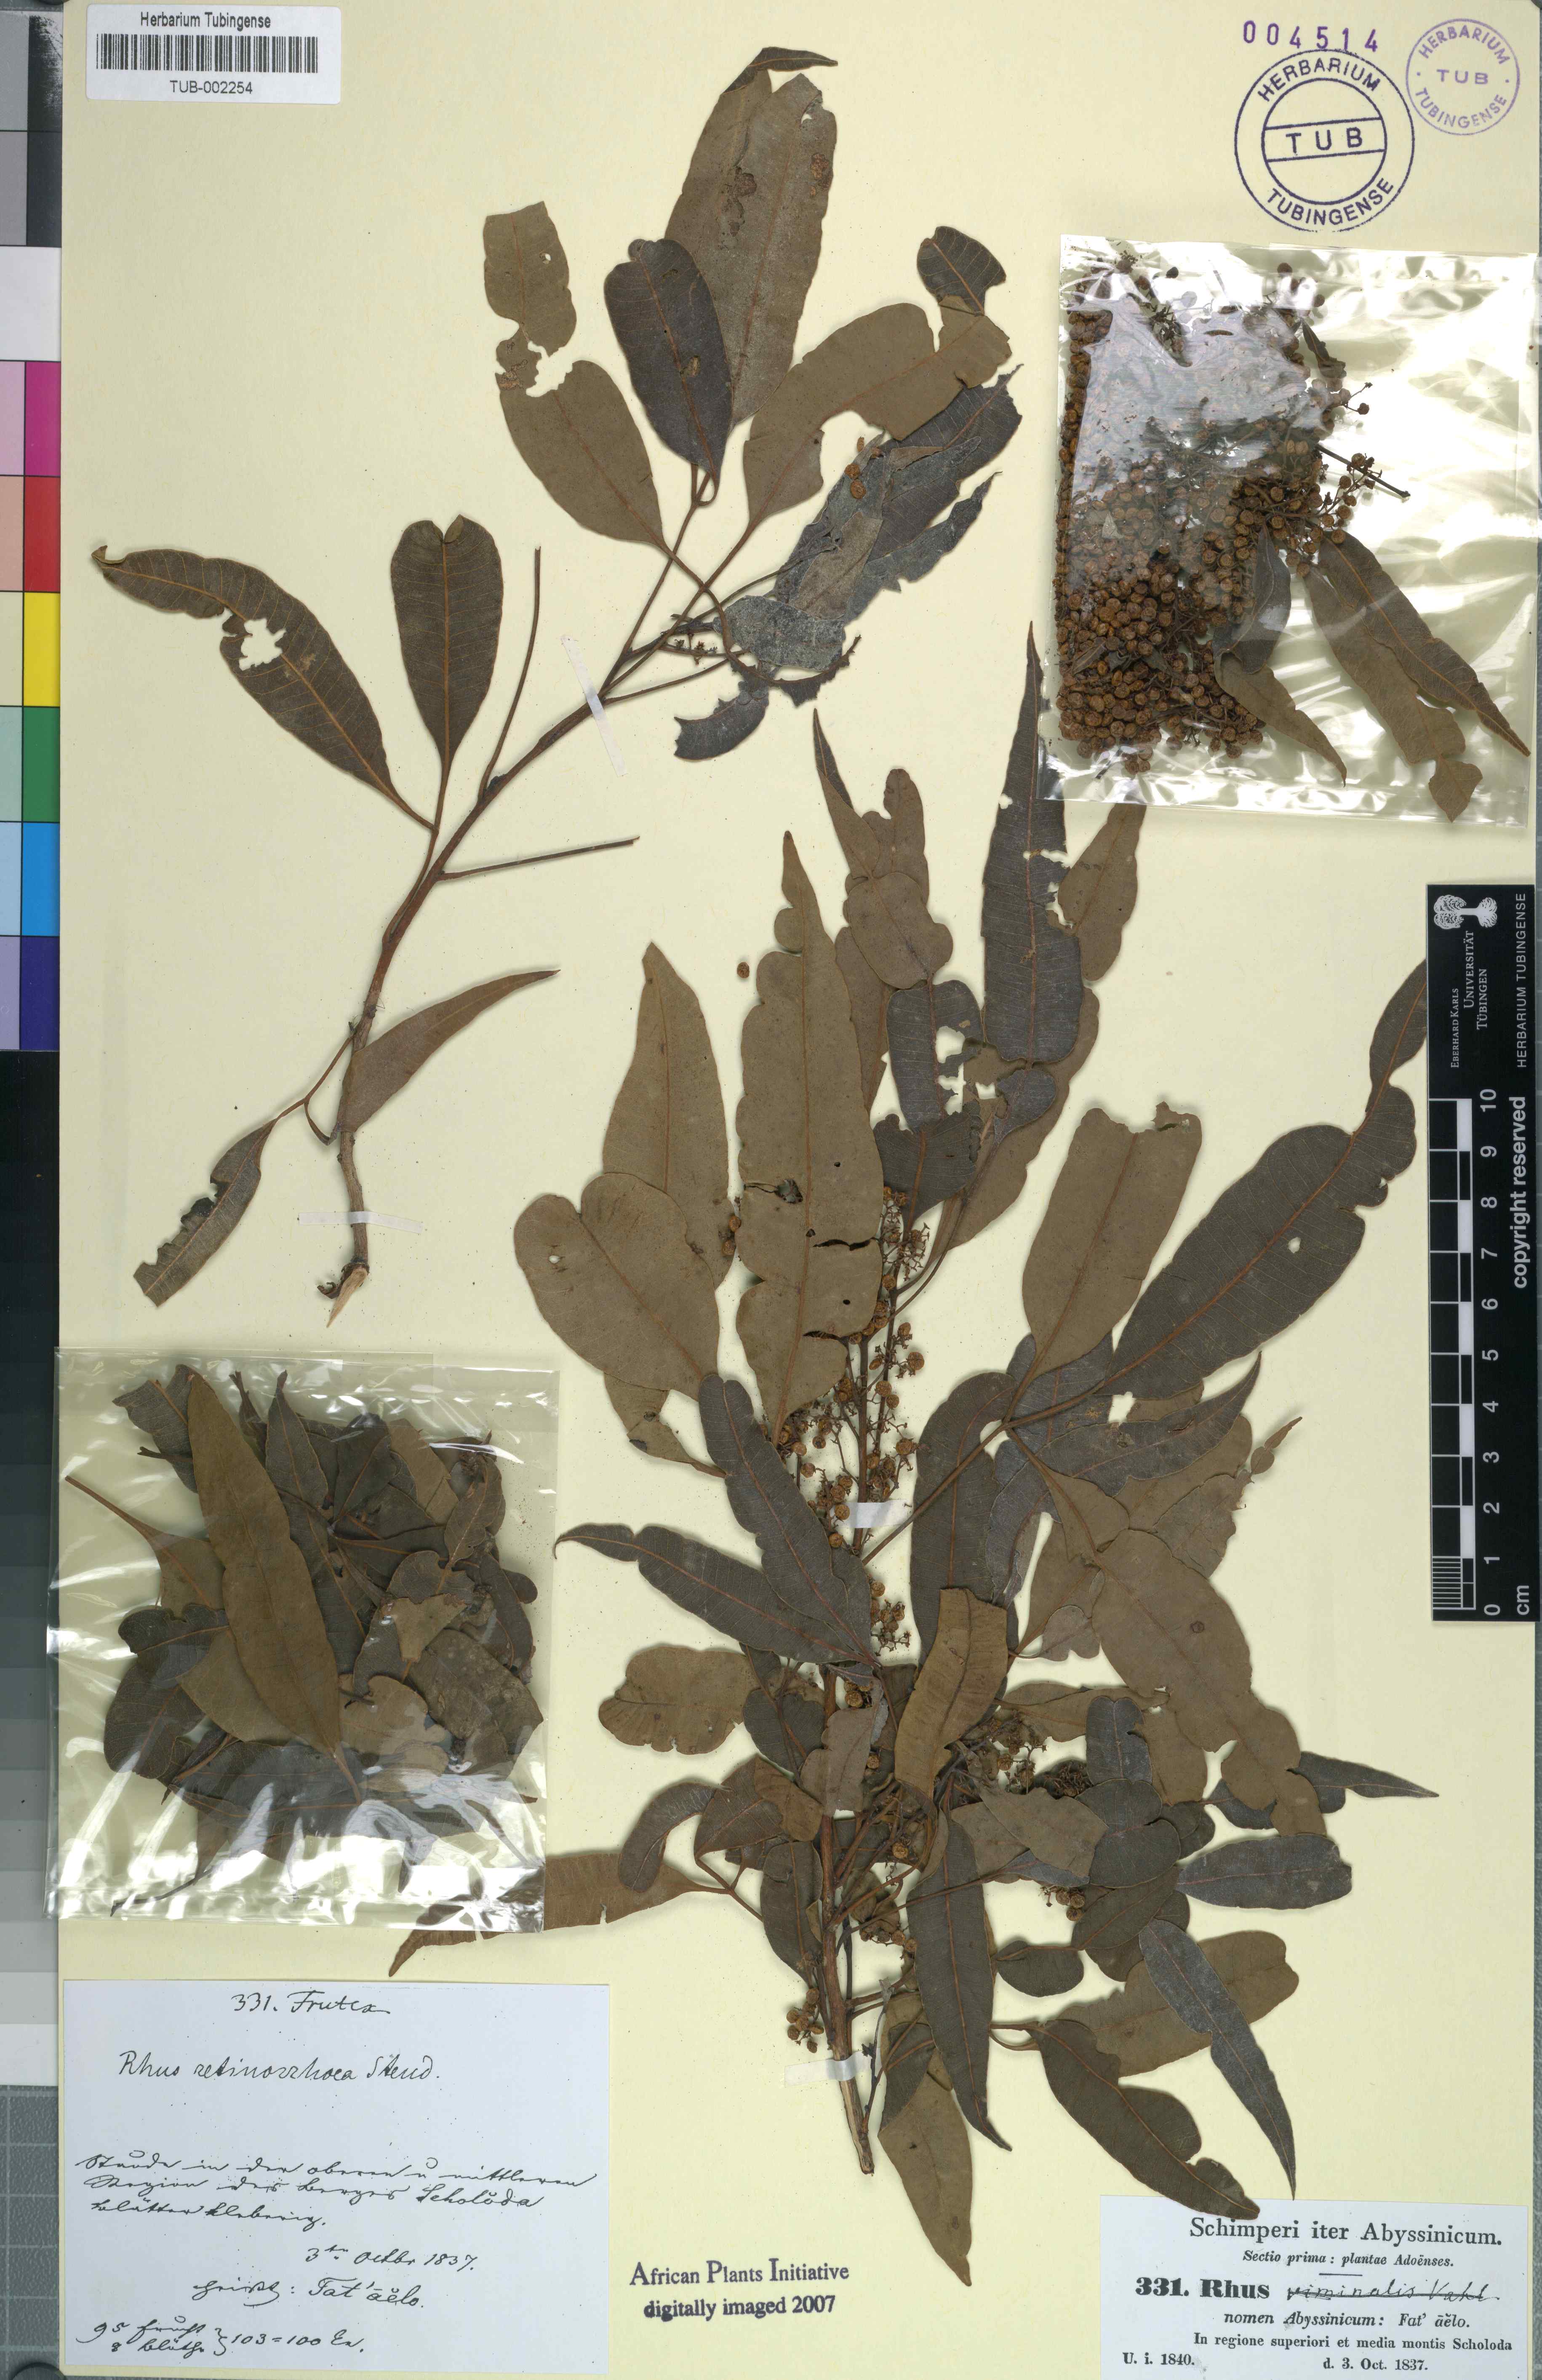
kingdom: Plantae
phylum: Tracheophyta
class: Magnoliopsida
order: Sapindales
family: Anacardiaceae
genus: Rhus
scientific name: Rhus retinorrhaea
